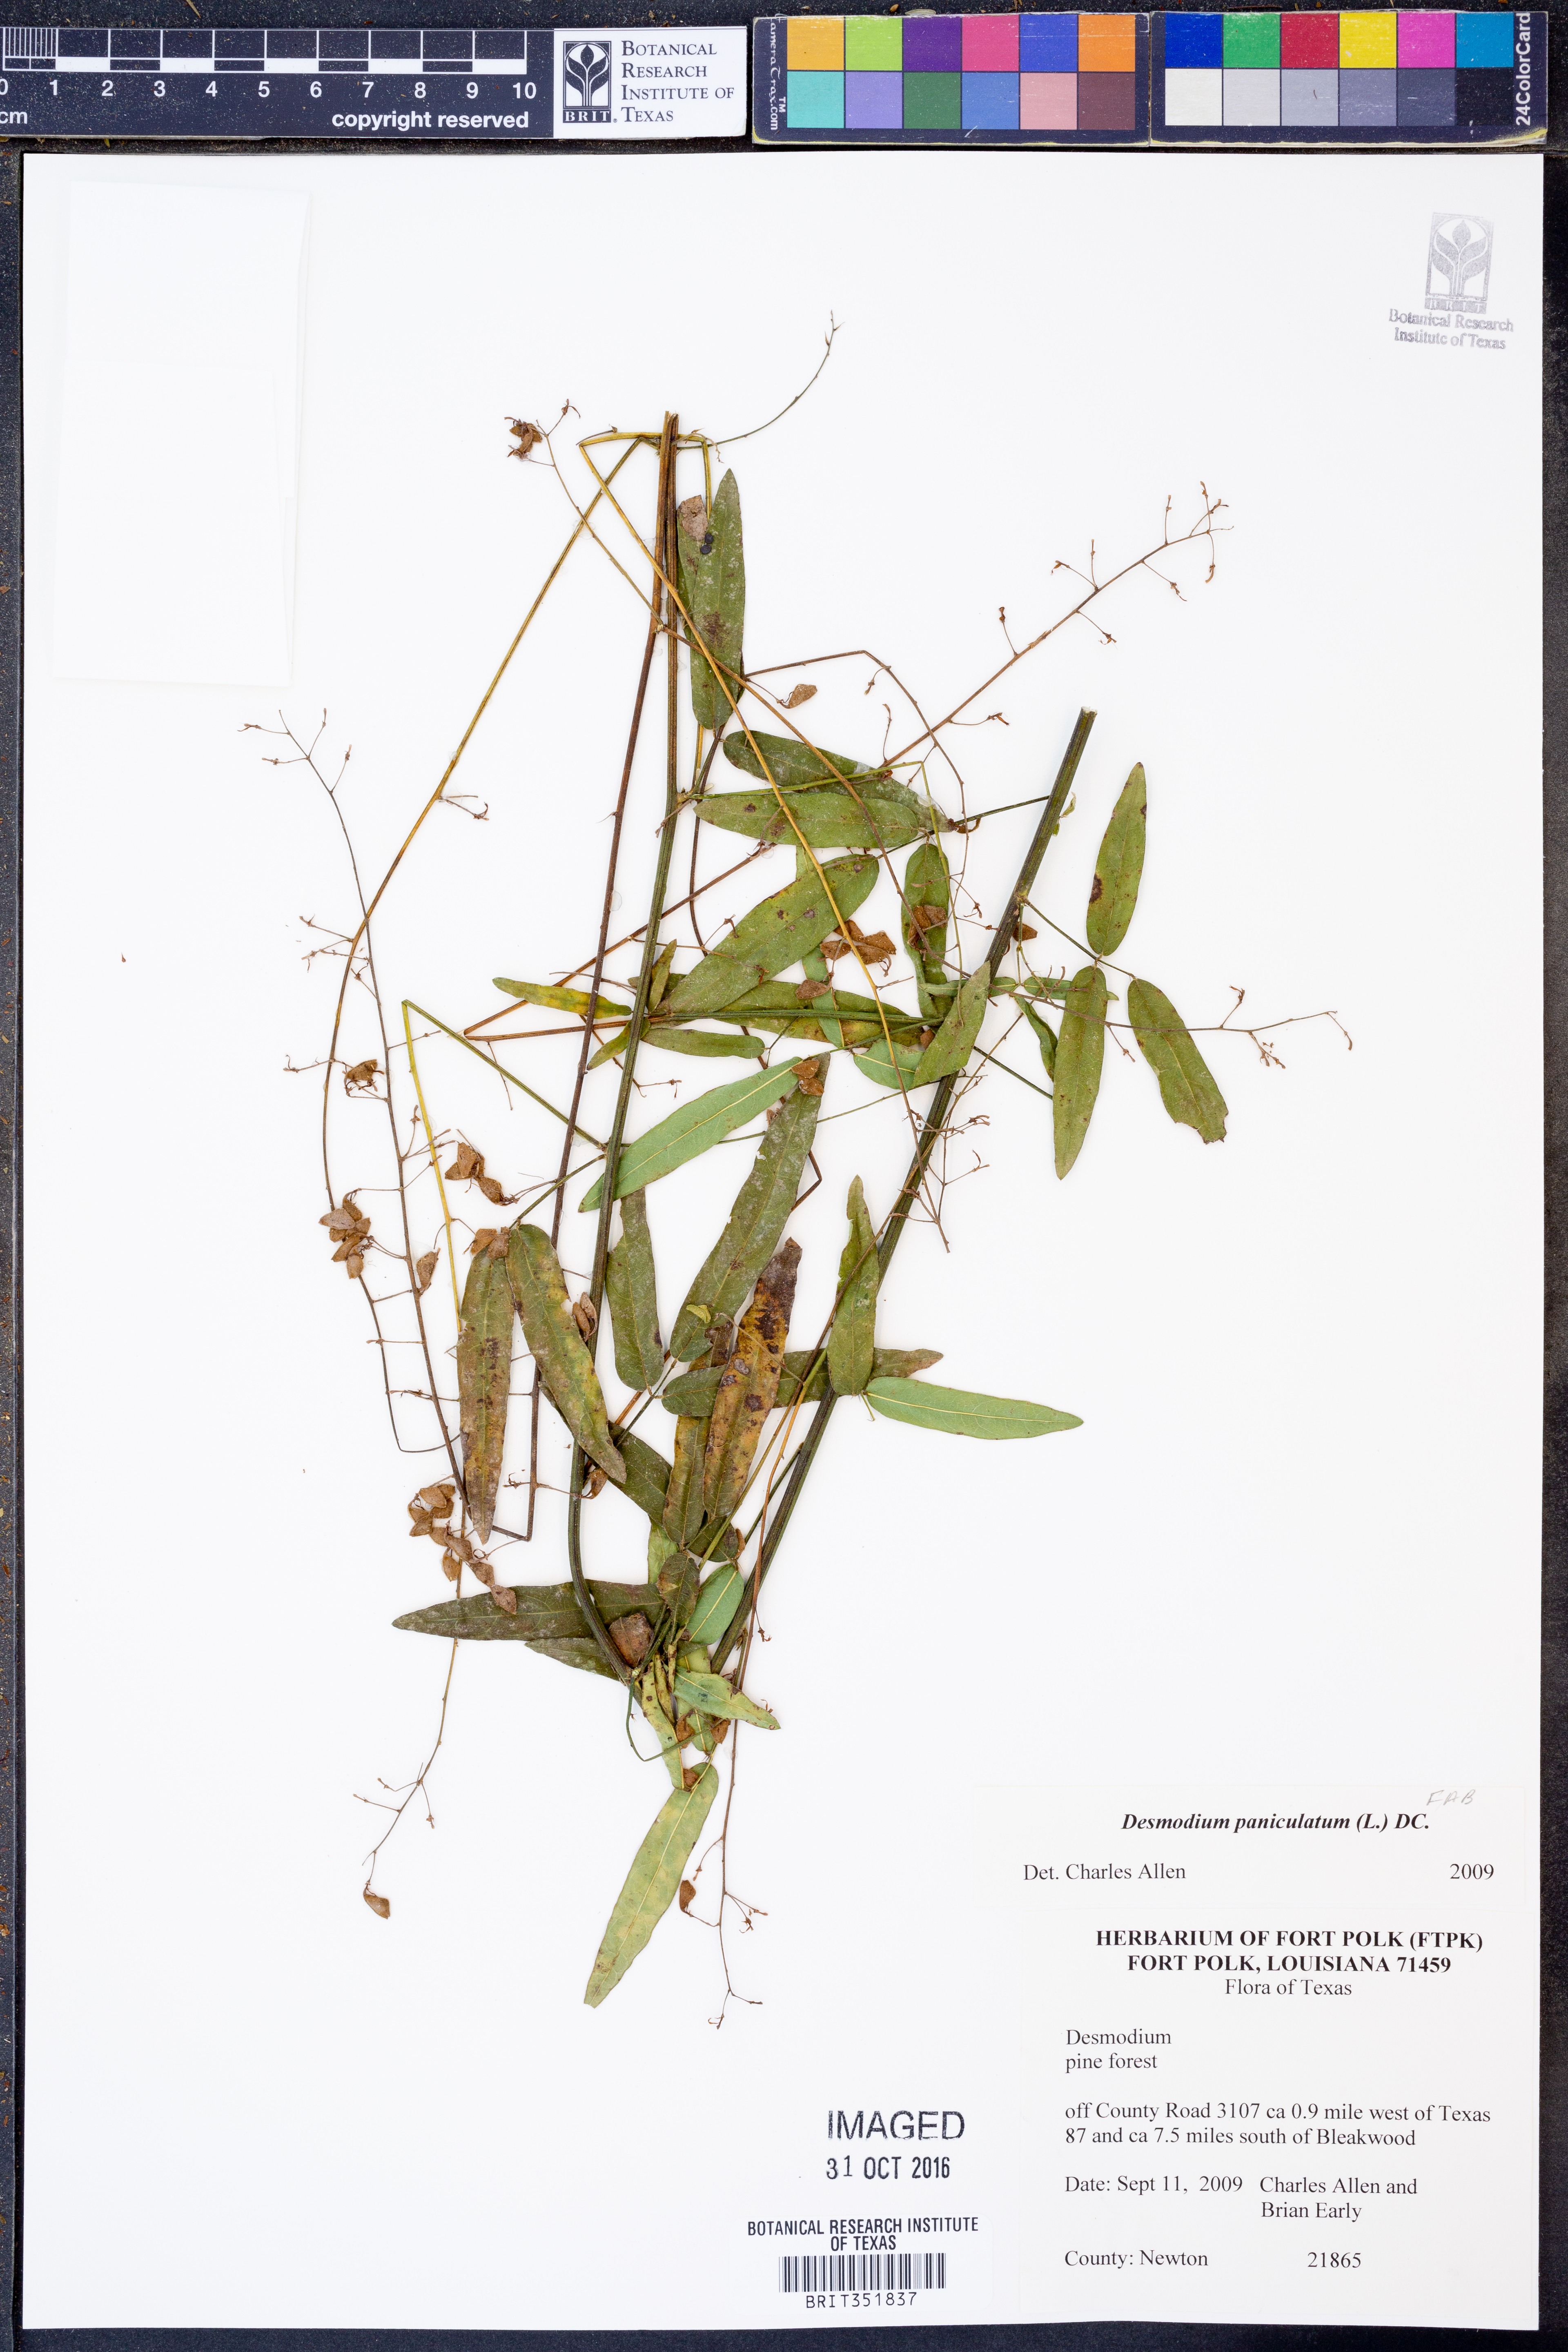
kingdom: Plantae
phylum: Tracheophyta
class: Magnoliopsida
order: Fabales
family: Fabaceae
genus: Desmodium
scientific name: Desmodium paniculatum
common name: Panicled tick-clover
